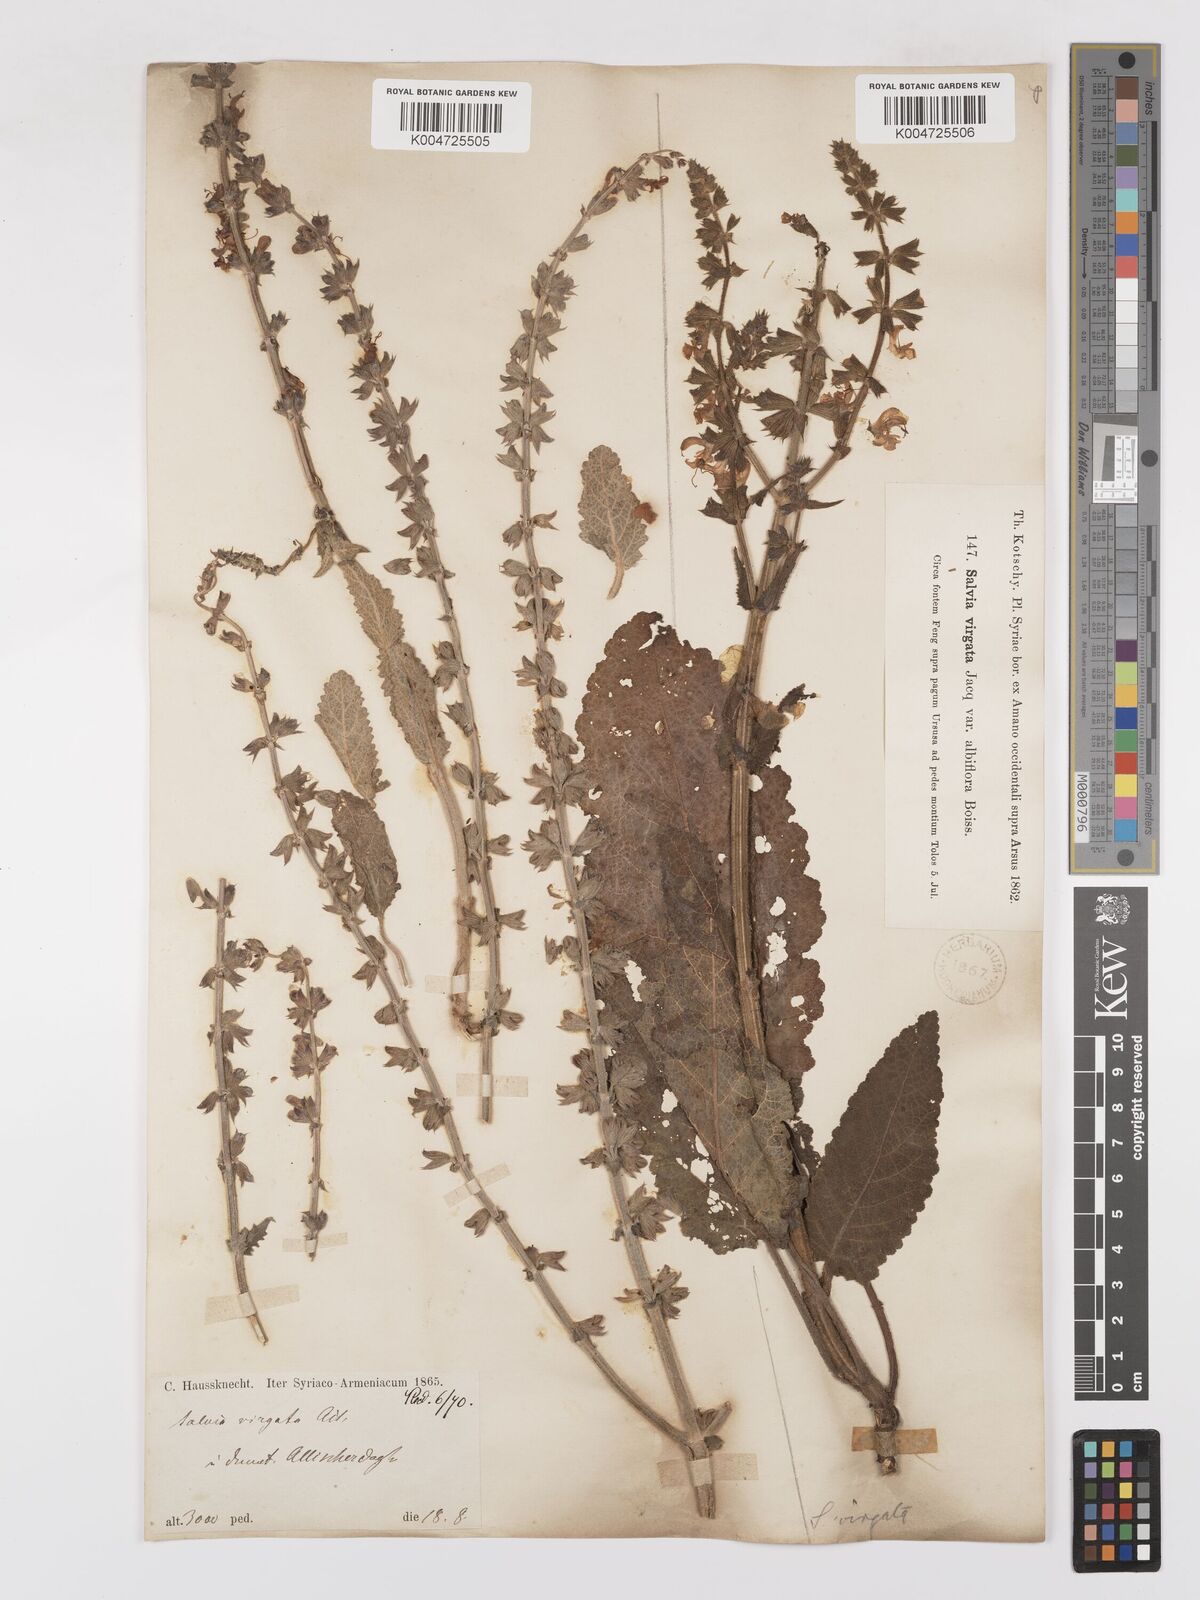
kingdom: Plantae
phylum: Tracheophyta
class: Magnoliopsida
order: Lamiales
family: Lamiaceae
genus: Salvia
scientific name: Salvia
